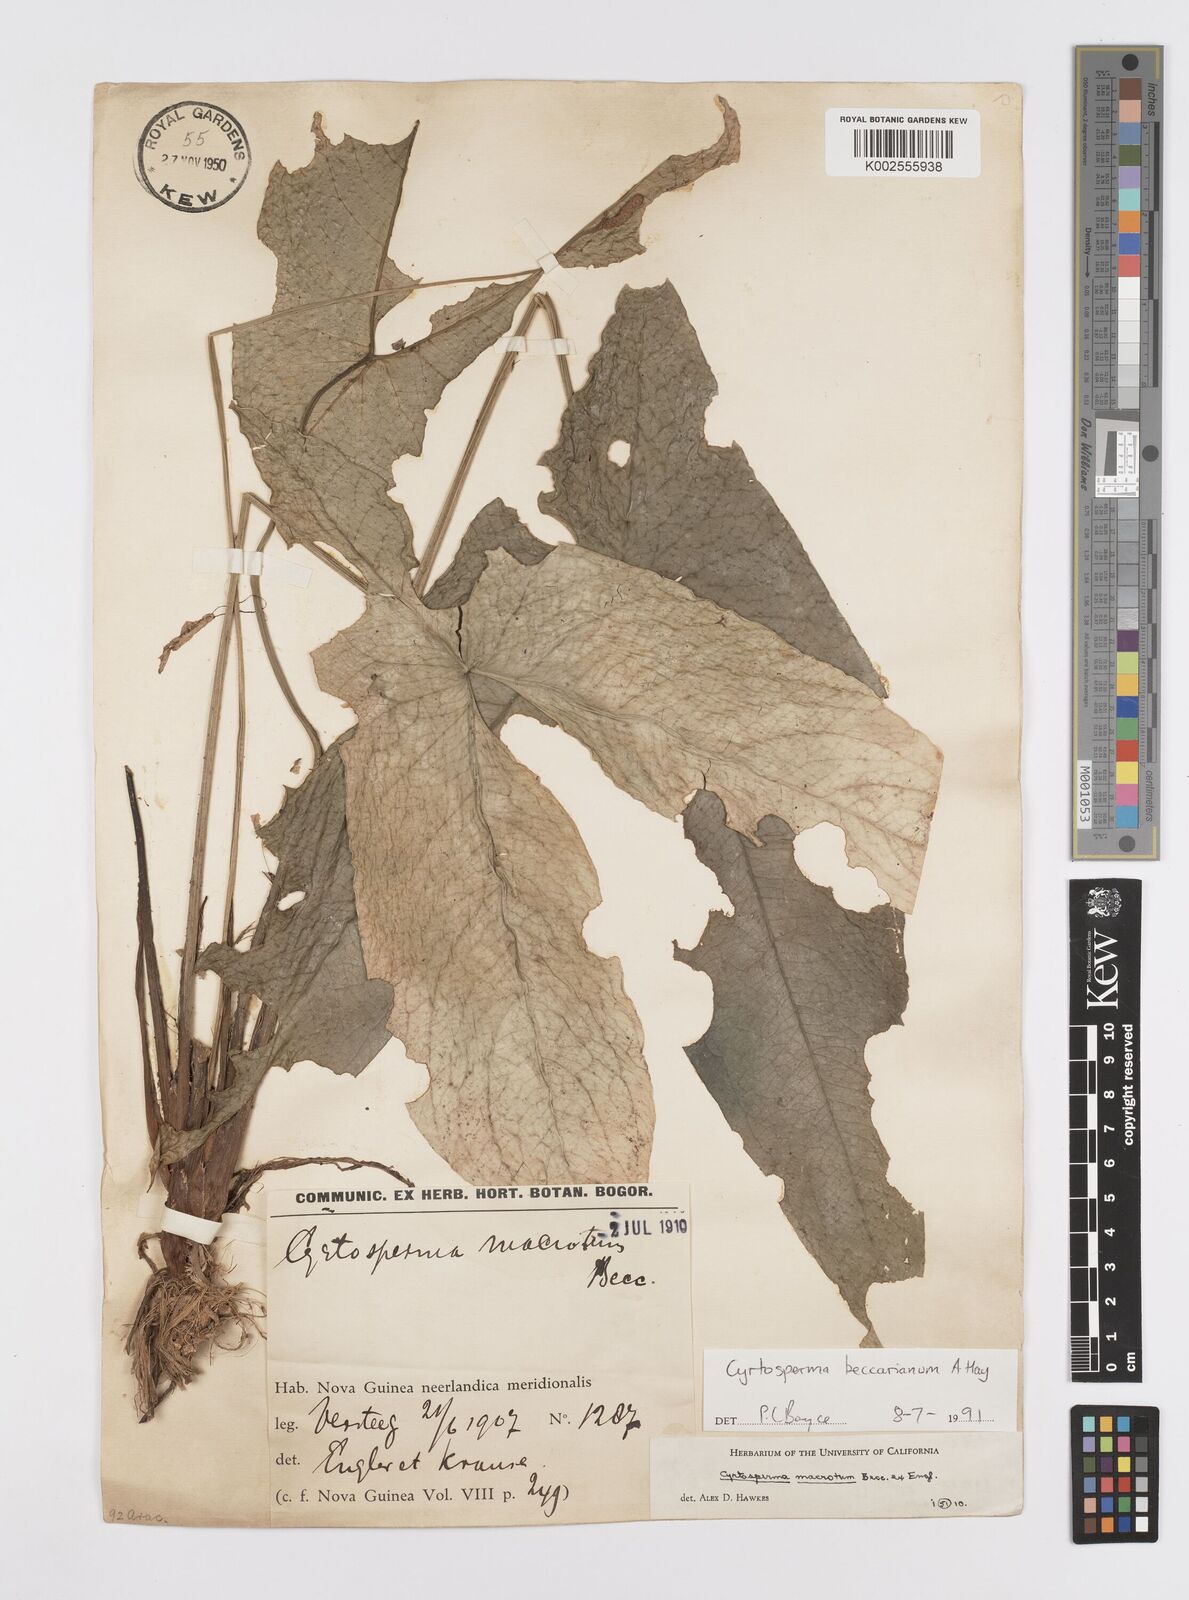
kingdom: Plantae
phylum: Tracheophyta
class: Liliopsida
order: Alismatales
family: Araceae
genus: Cyrtosperma
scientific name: Cyrtosperma beccarianum
